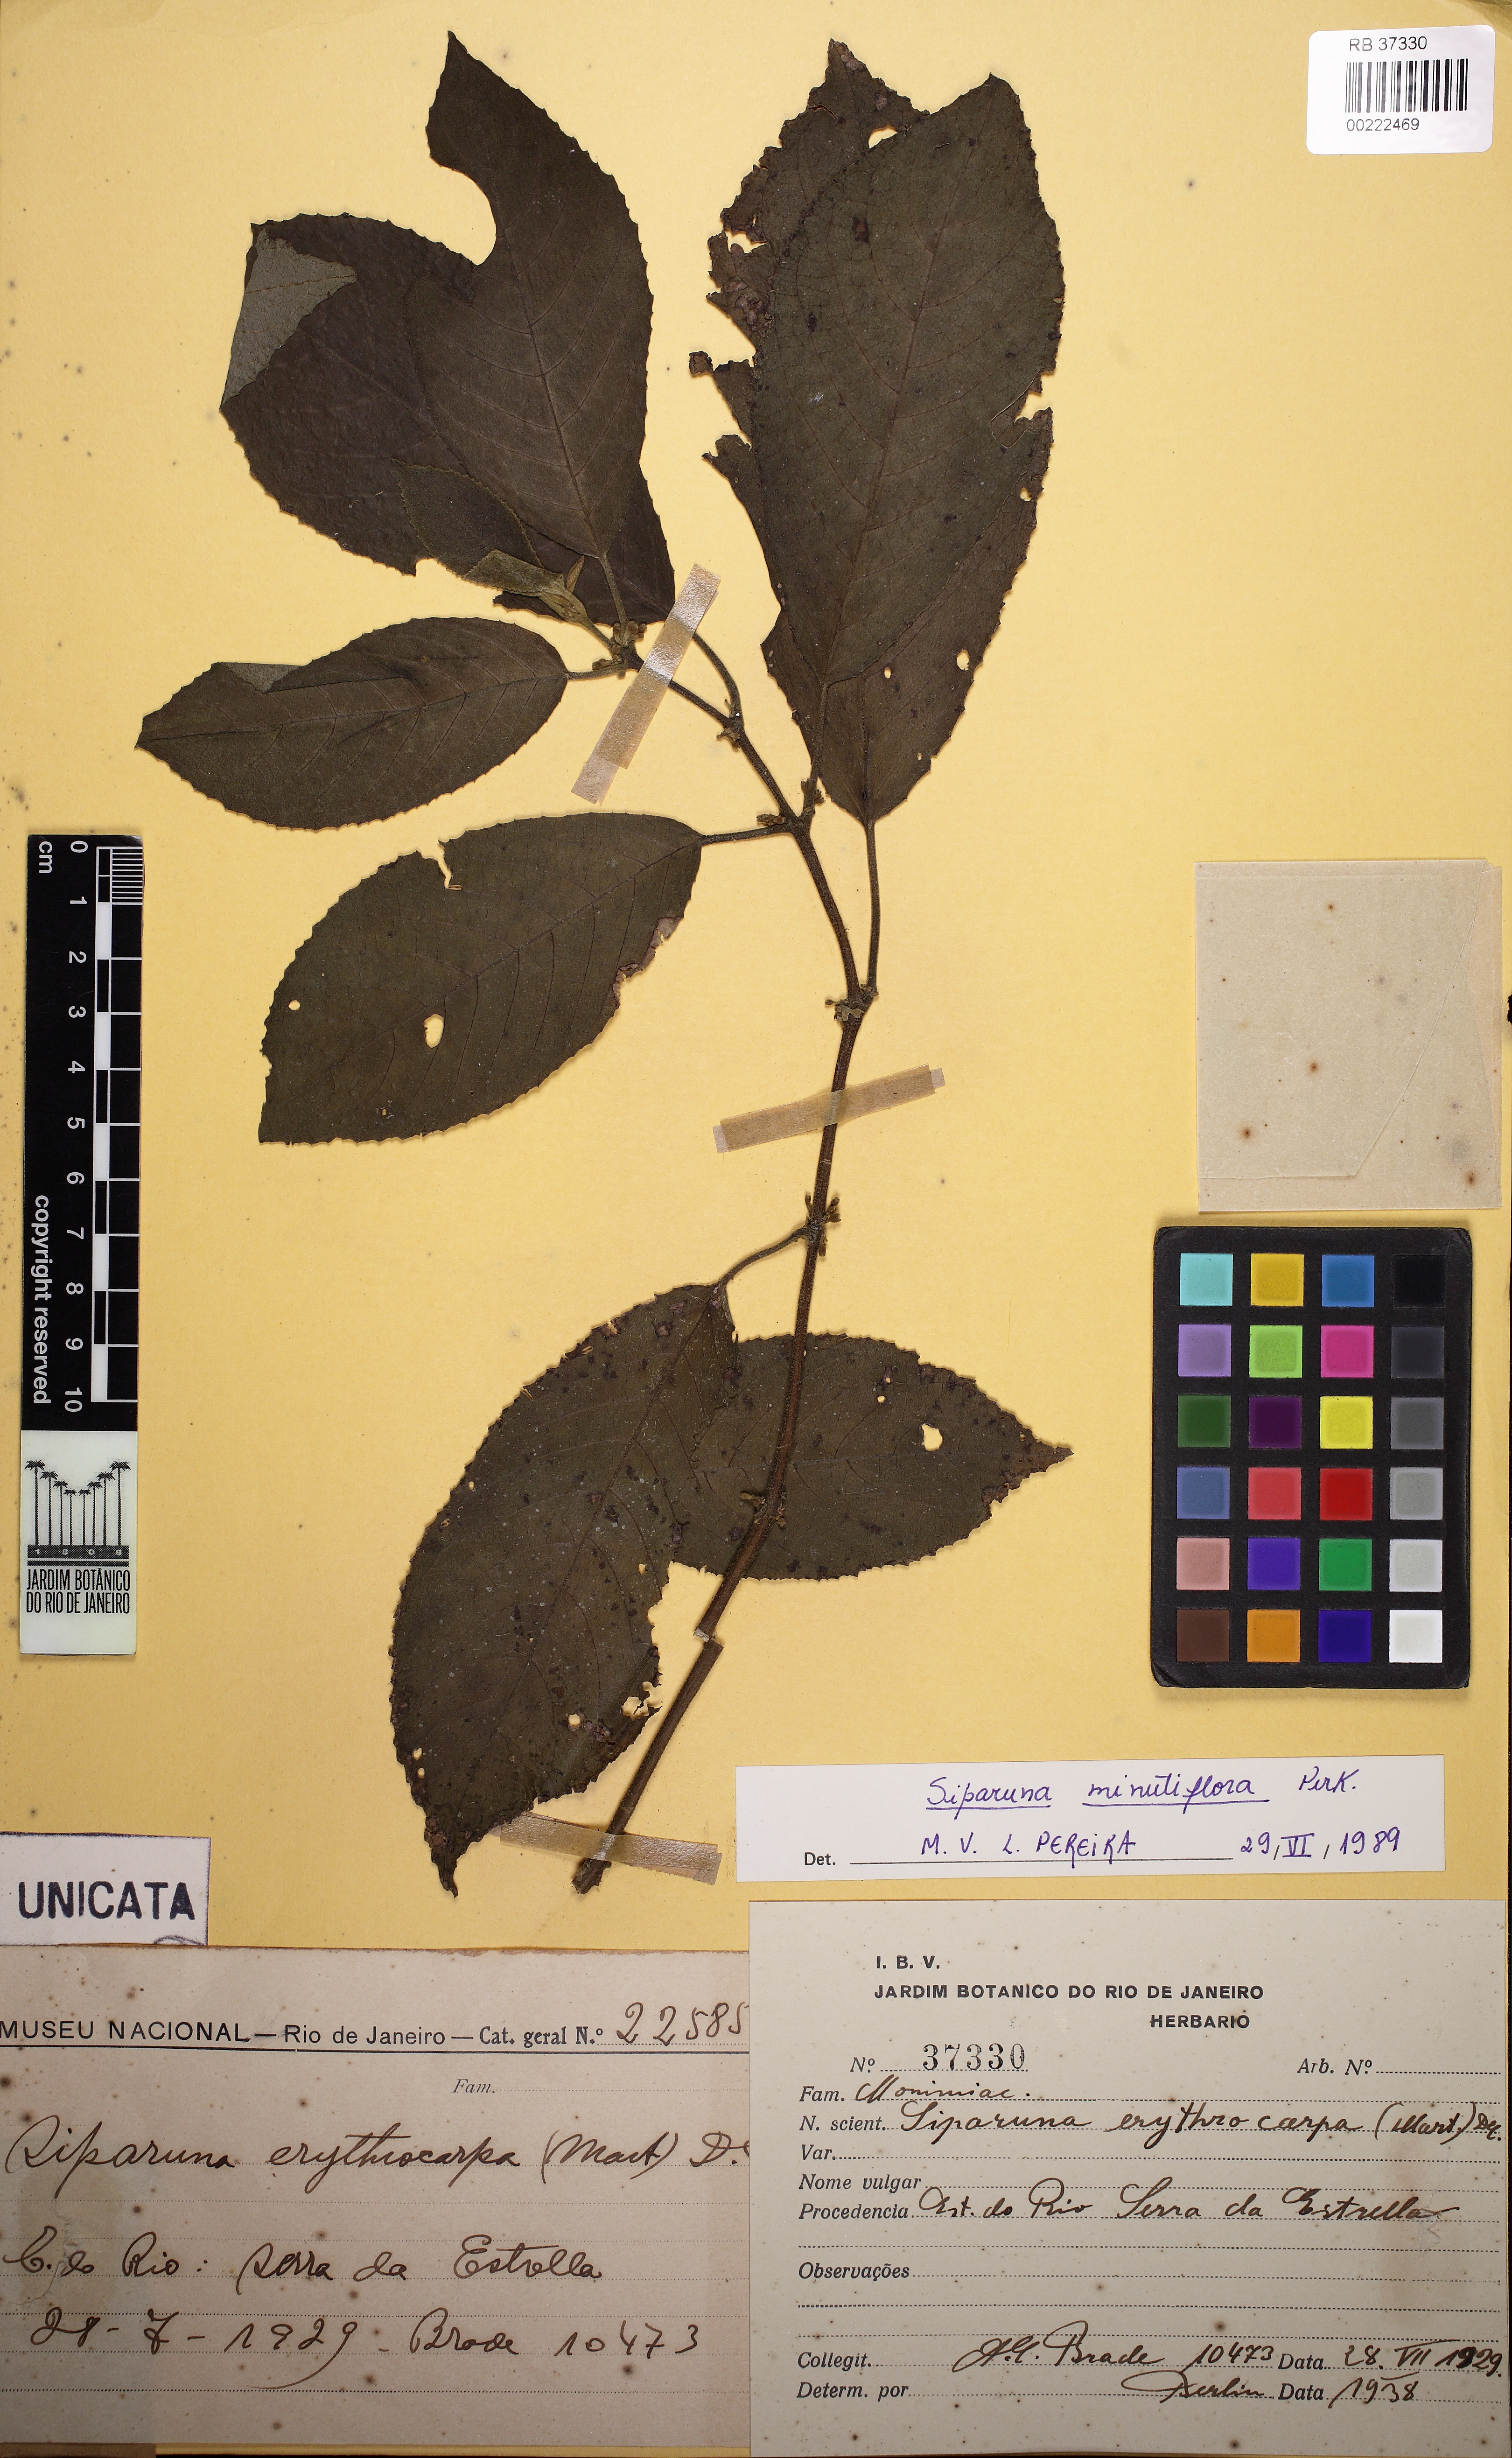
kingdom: Plantae
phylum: Tracheophyta
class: Magnoliopsida
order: Laurales
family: Siparunaceae
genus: Siparuna
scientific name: Siparuna brasiliensis
